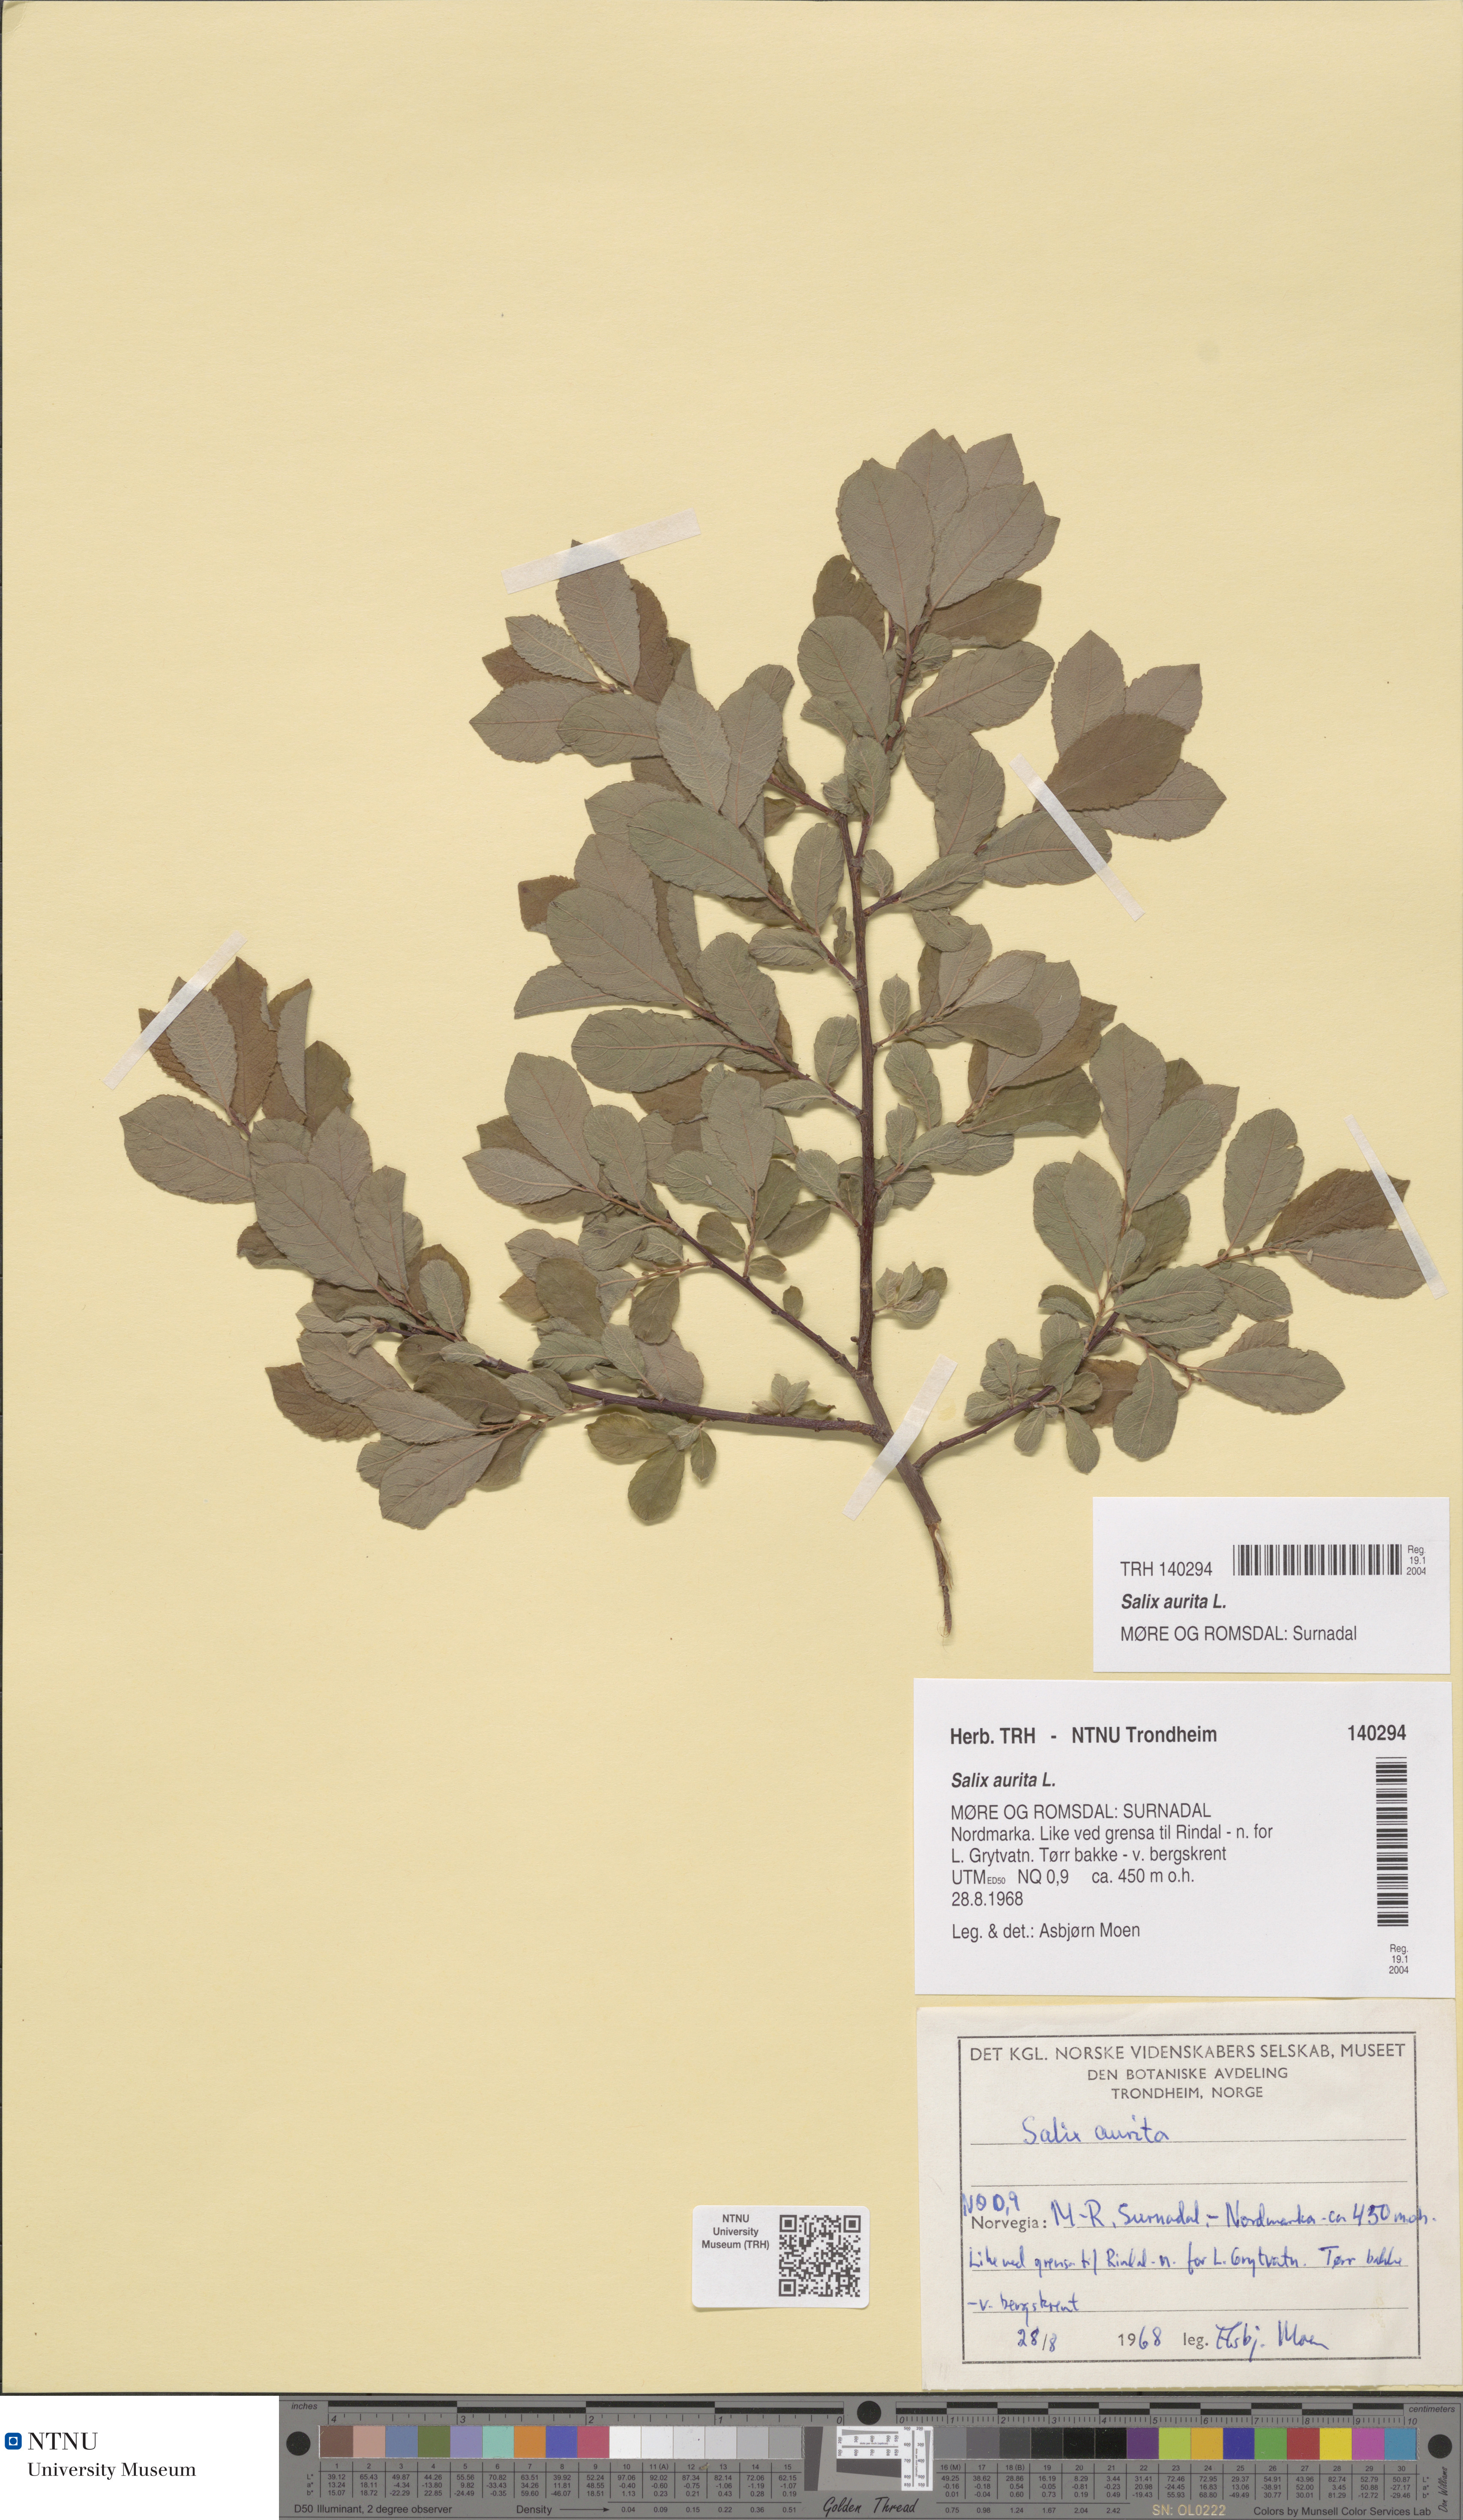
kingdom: Plantae
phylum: Tracheophyta
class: Magnoliopsida
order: Malpighiales
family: Salicaceae
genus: Salix
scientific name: Salix aurita
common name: Eared willow
